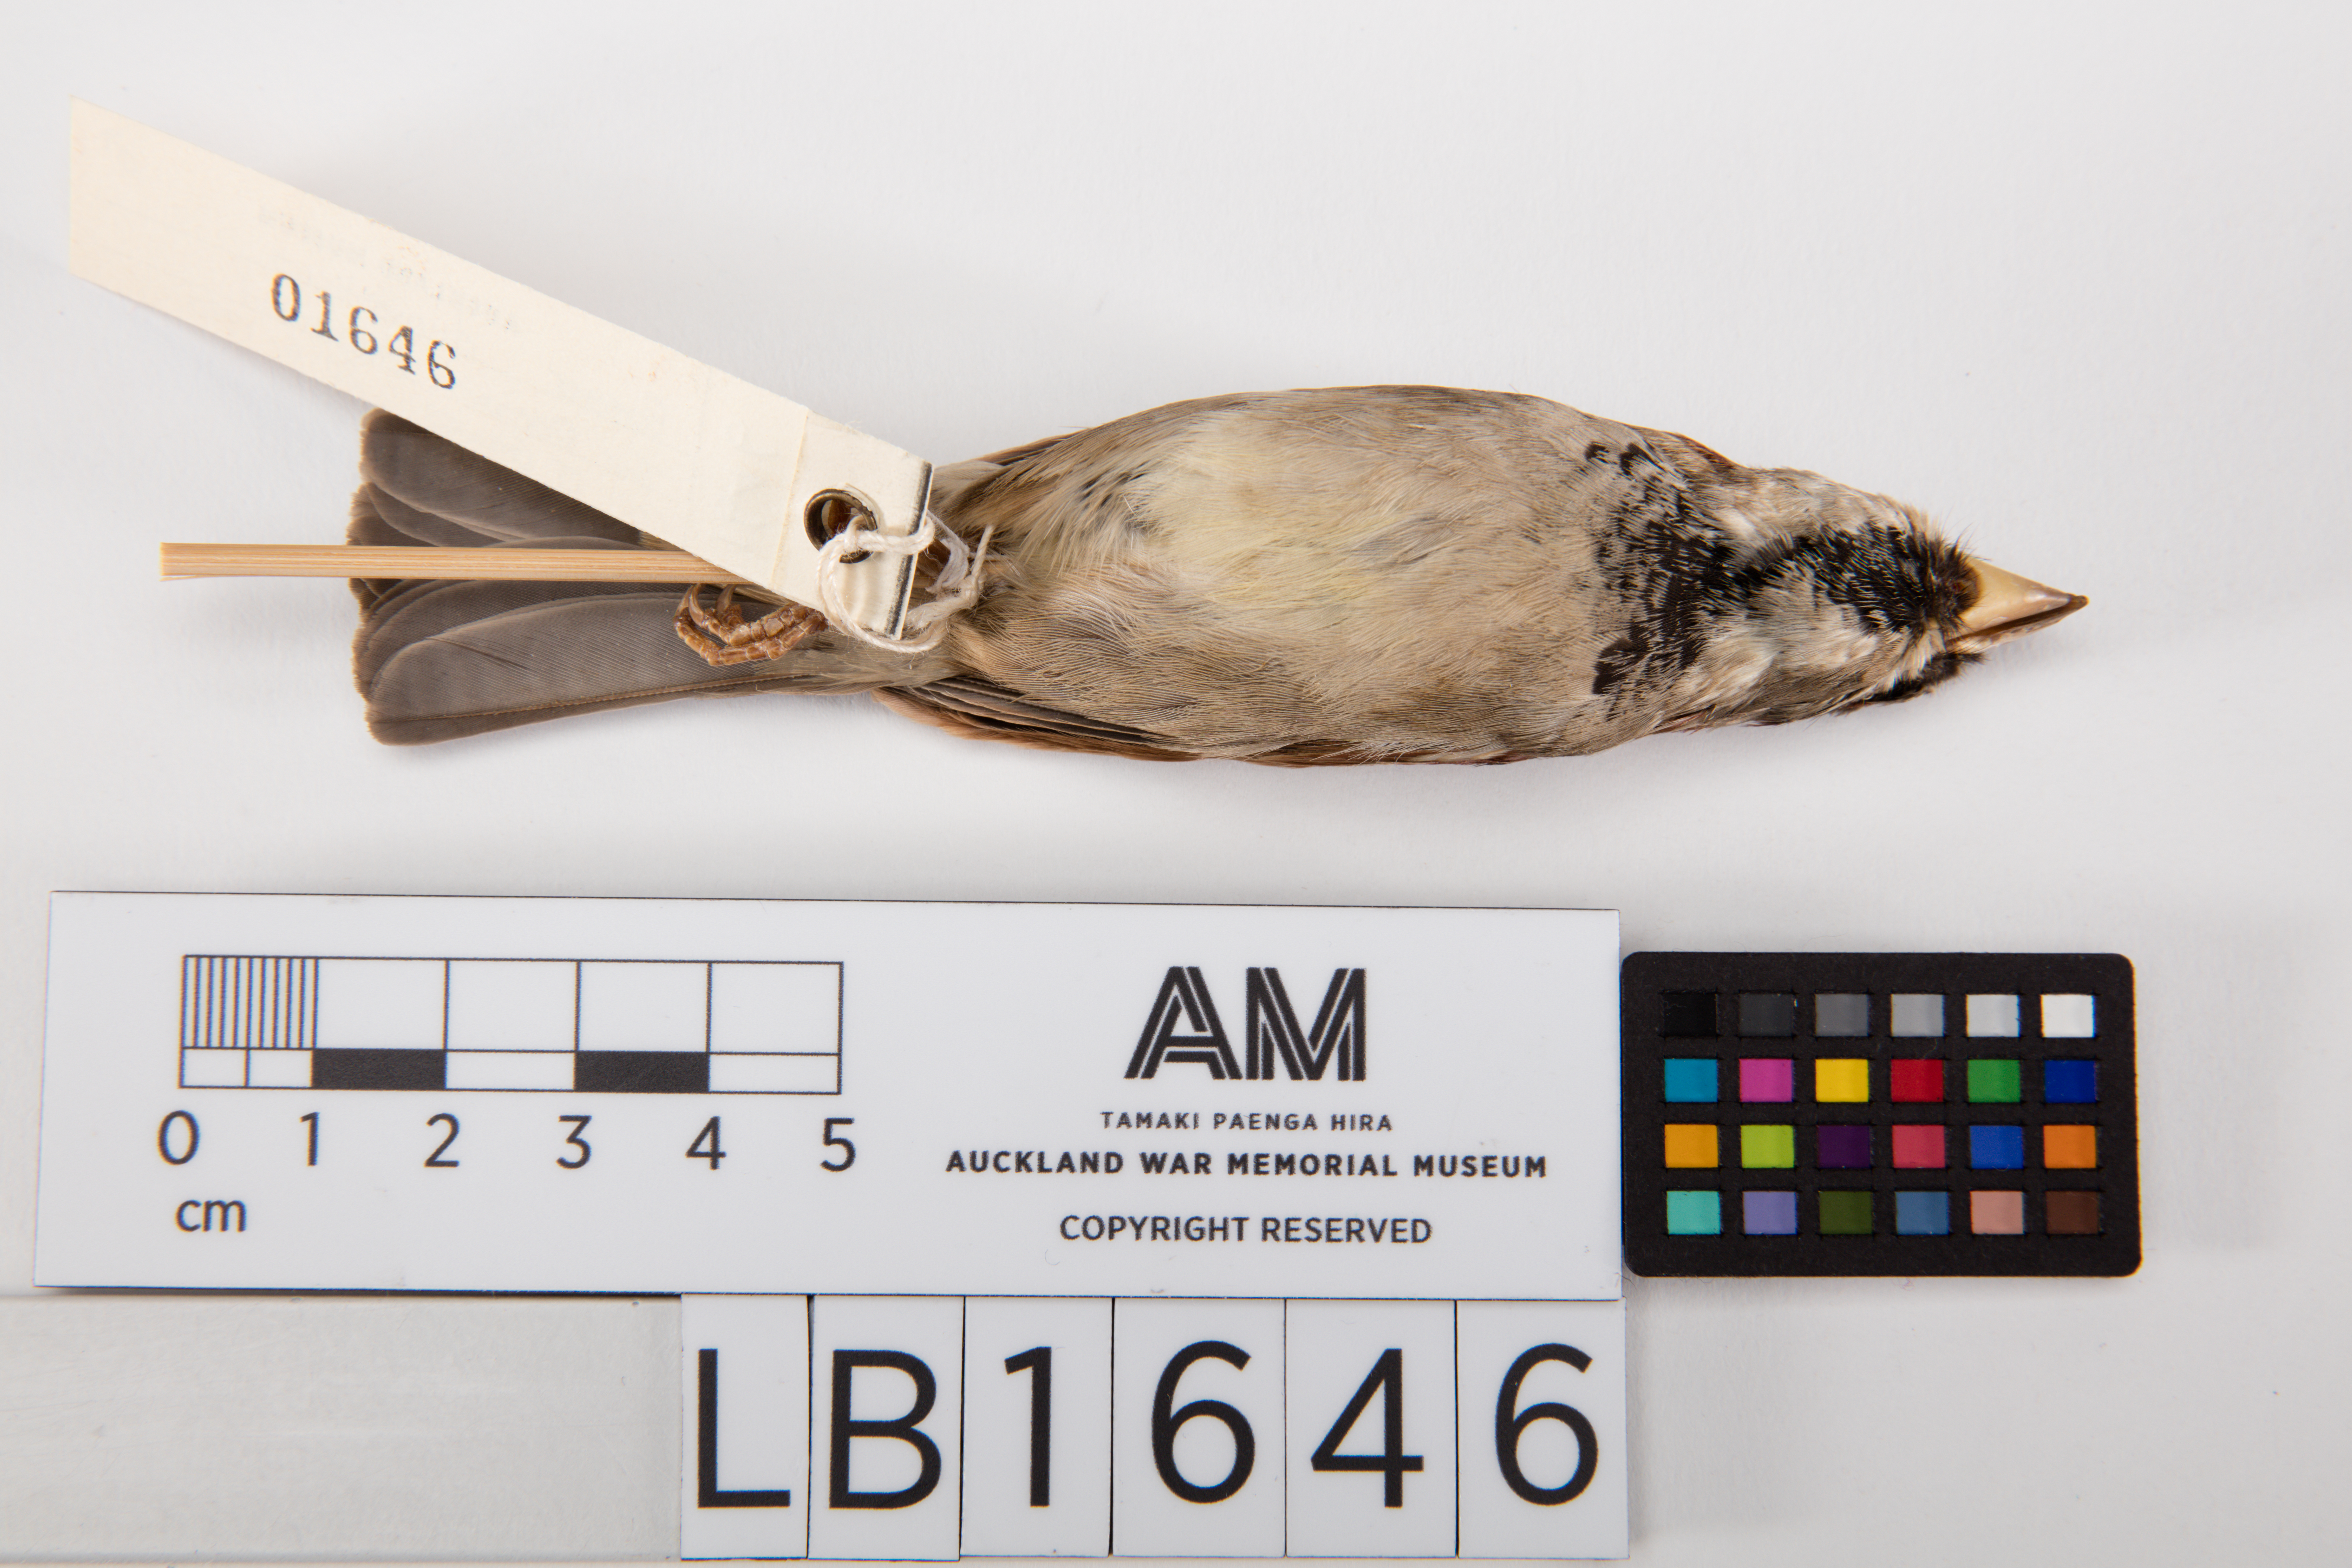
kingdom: Animalia
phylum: Chordata
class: Aves
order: Passeriformes
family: Passeridae
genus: Passer
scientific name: Passer domesticus
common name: House sparrow
